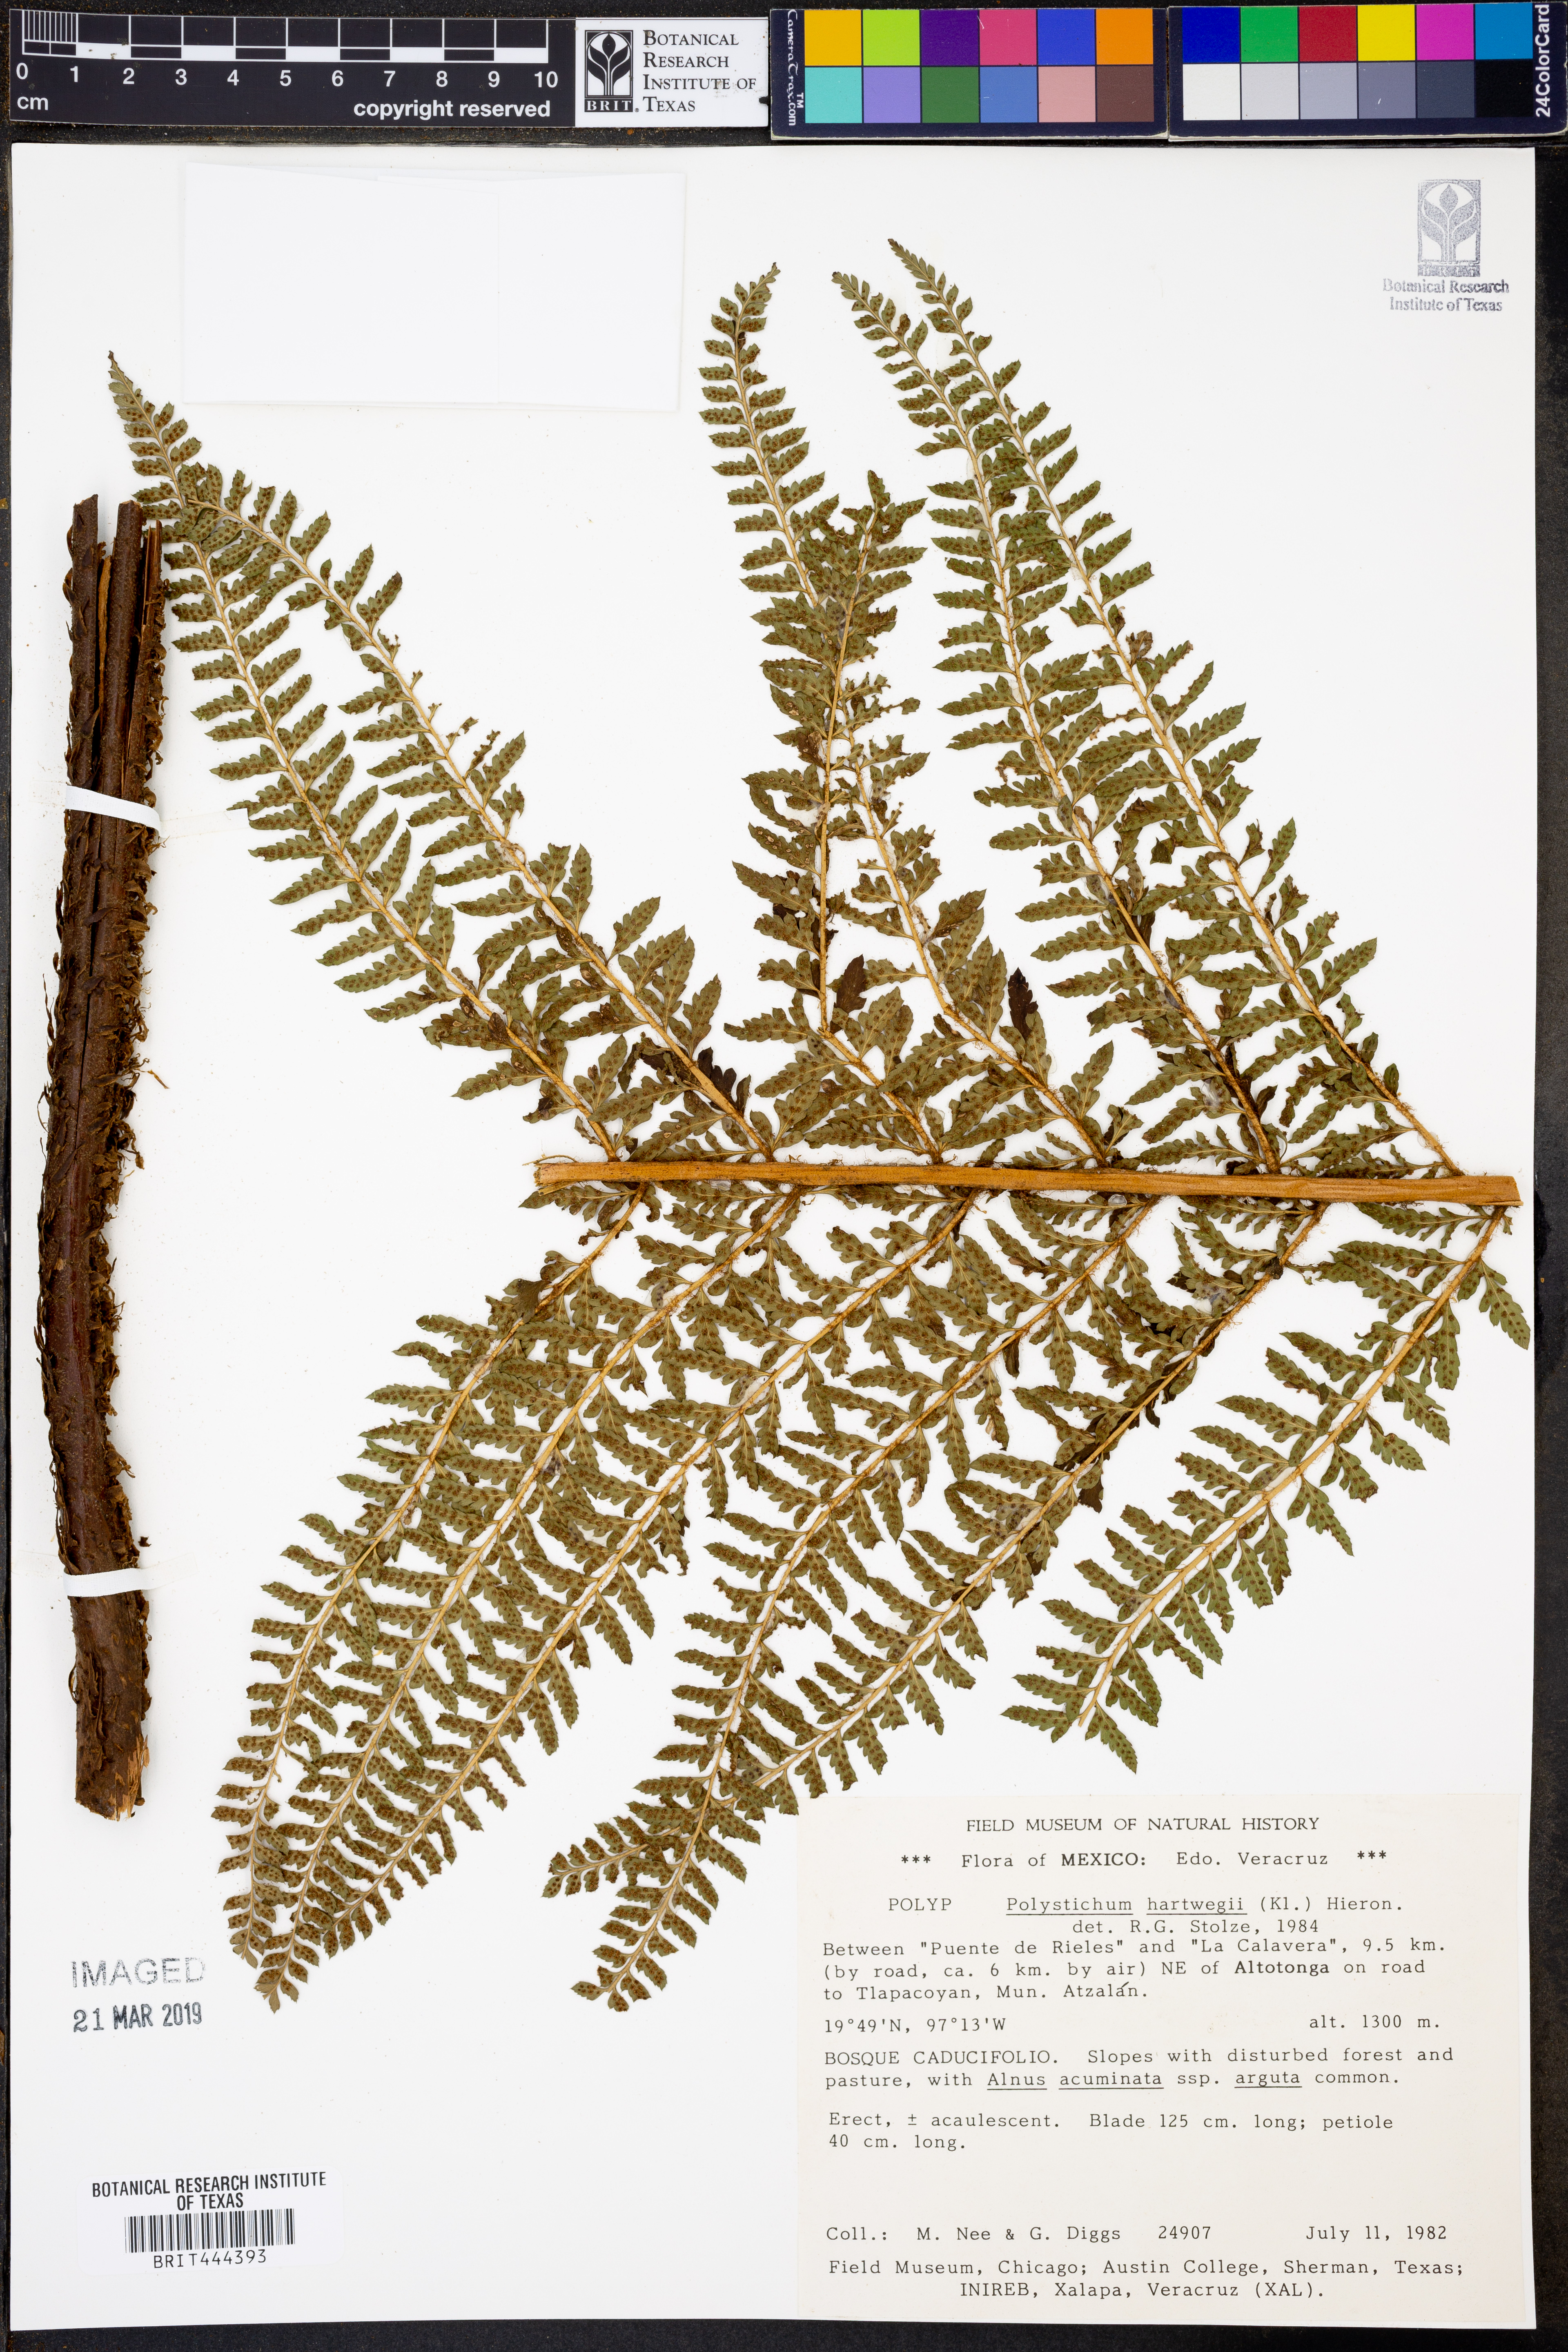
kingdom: Plantae
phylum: Tracheophyta
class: Polypodiopsida
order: Polypodiales
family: Dryopteridaceae
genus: Polystichum
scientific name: Polystichum hartwegii
